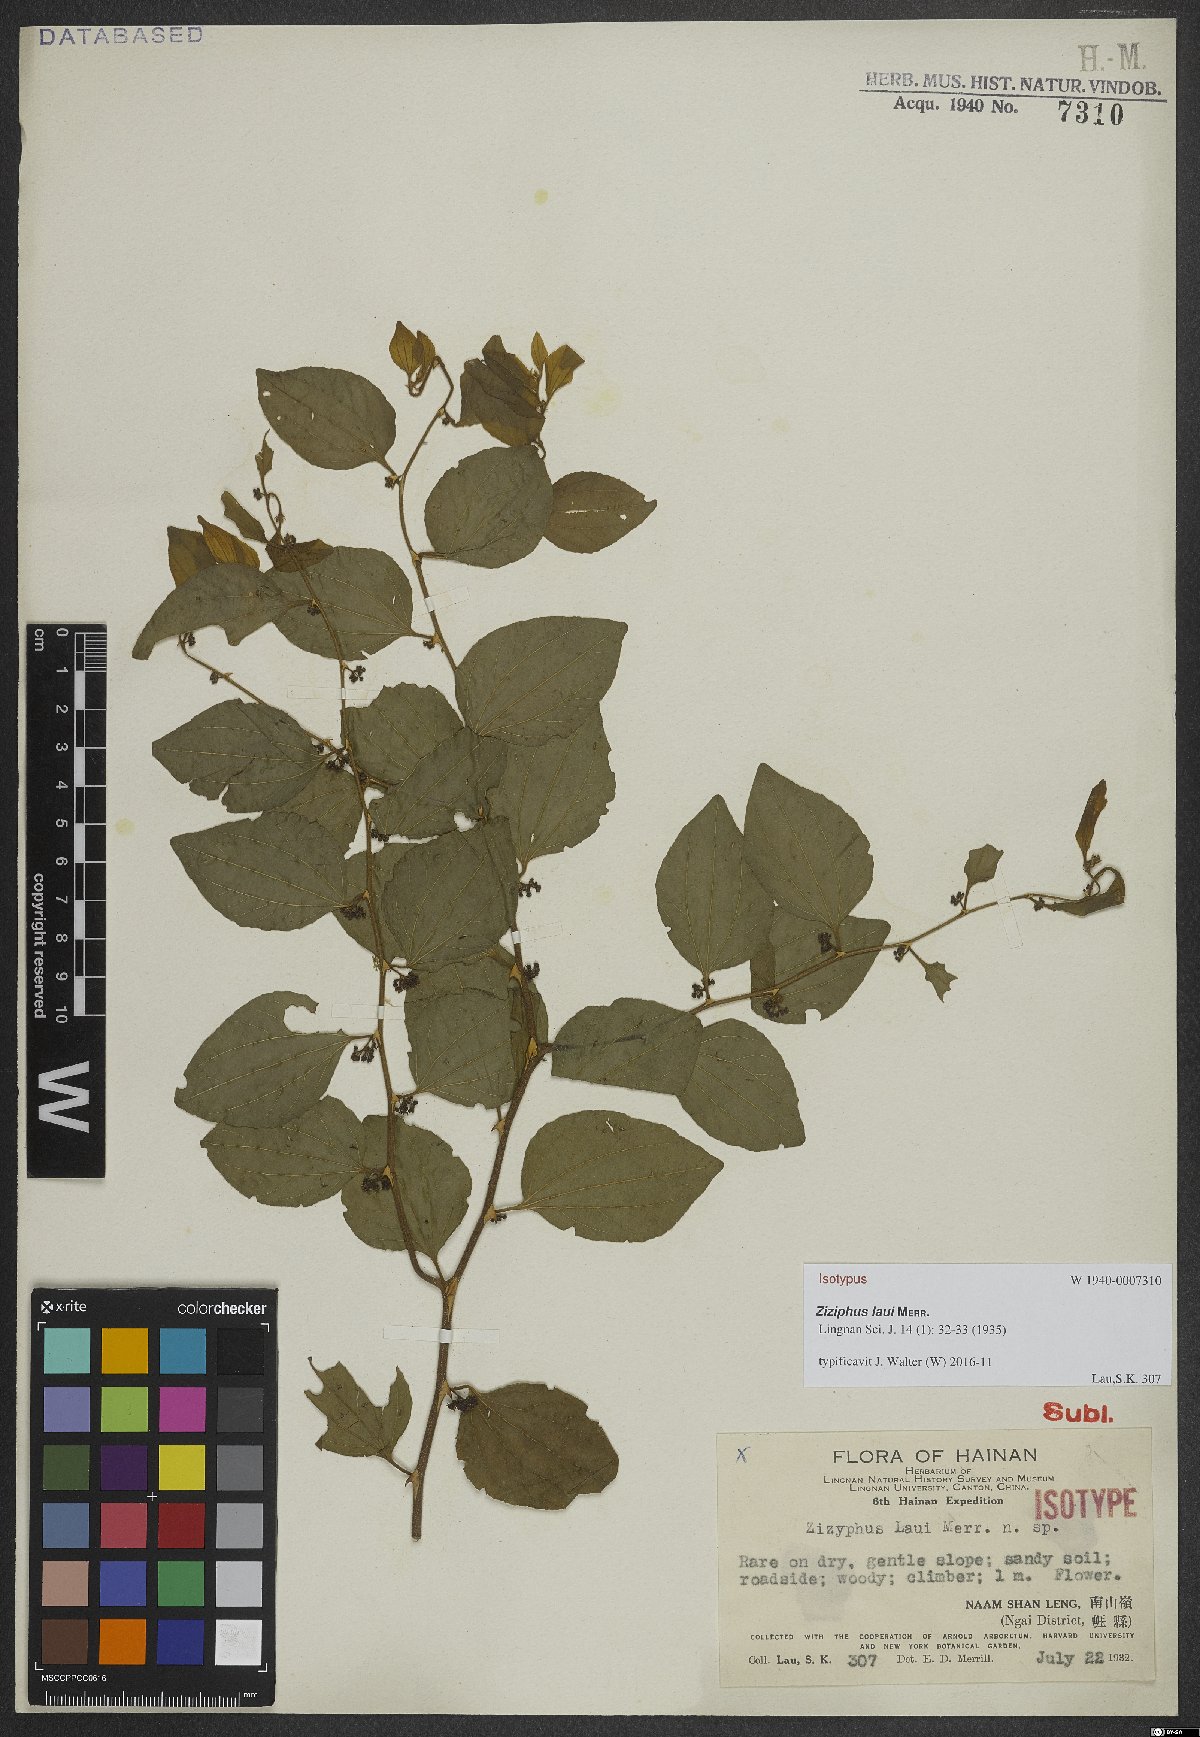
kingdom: Plantae
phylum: Tracheophyta
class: Magnoliopsida
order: Rosales
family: Rhamnaceae
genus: Ziziphus
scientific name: Ziziphus laui
